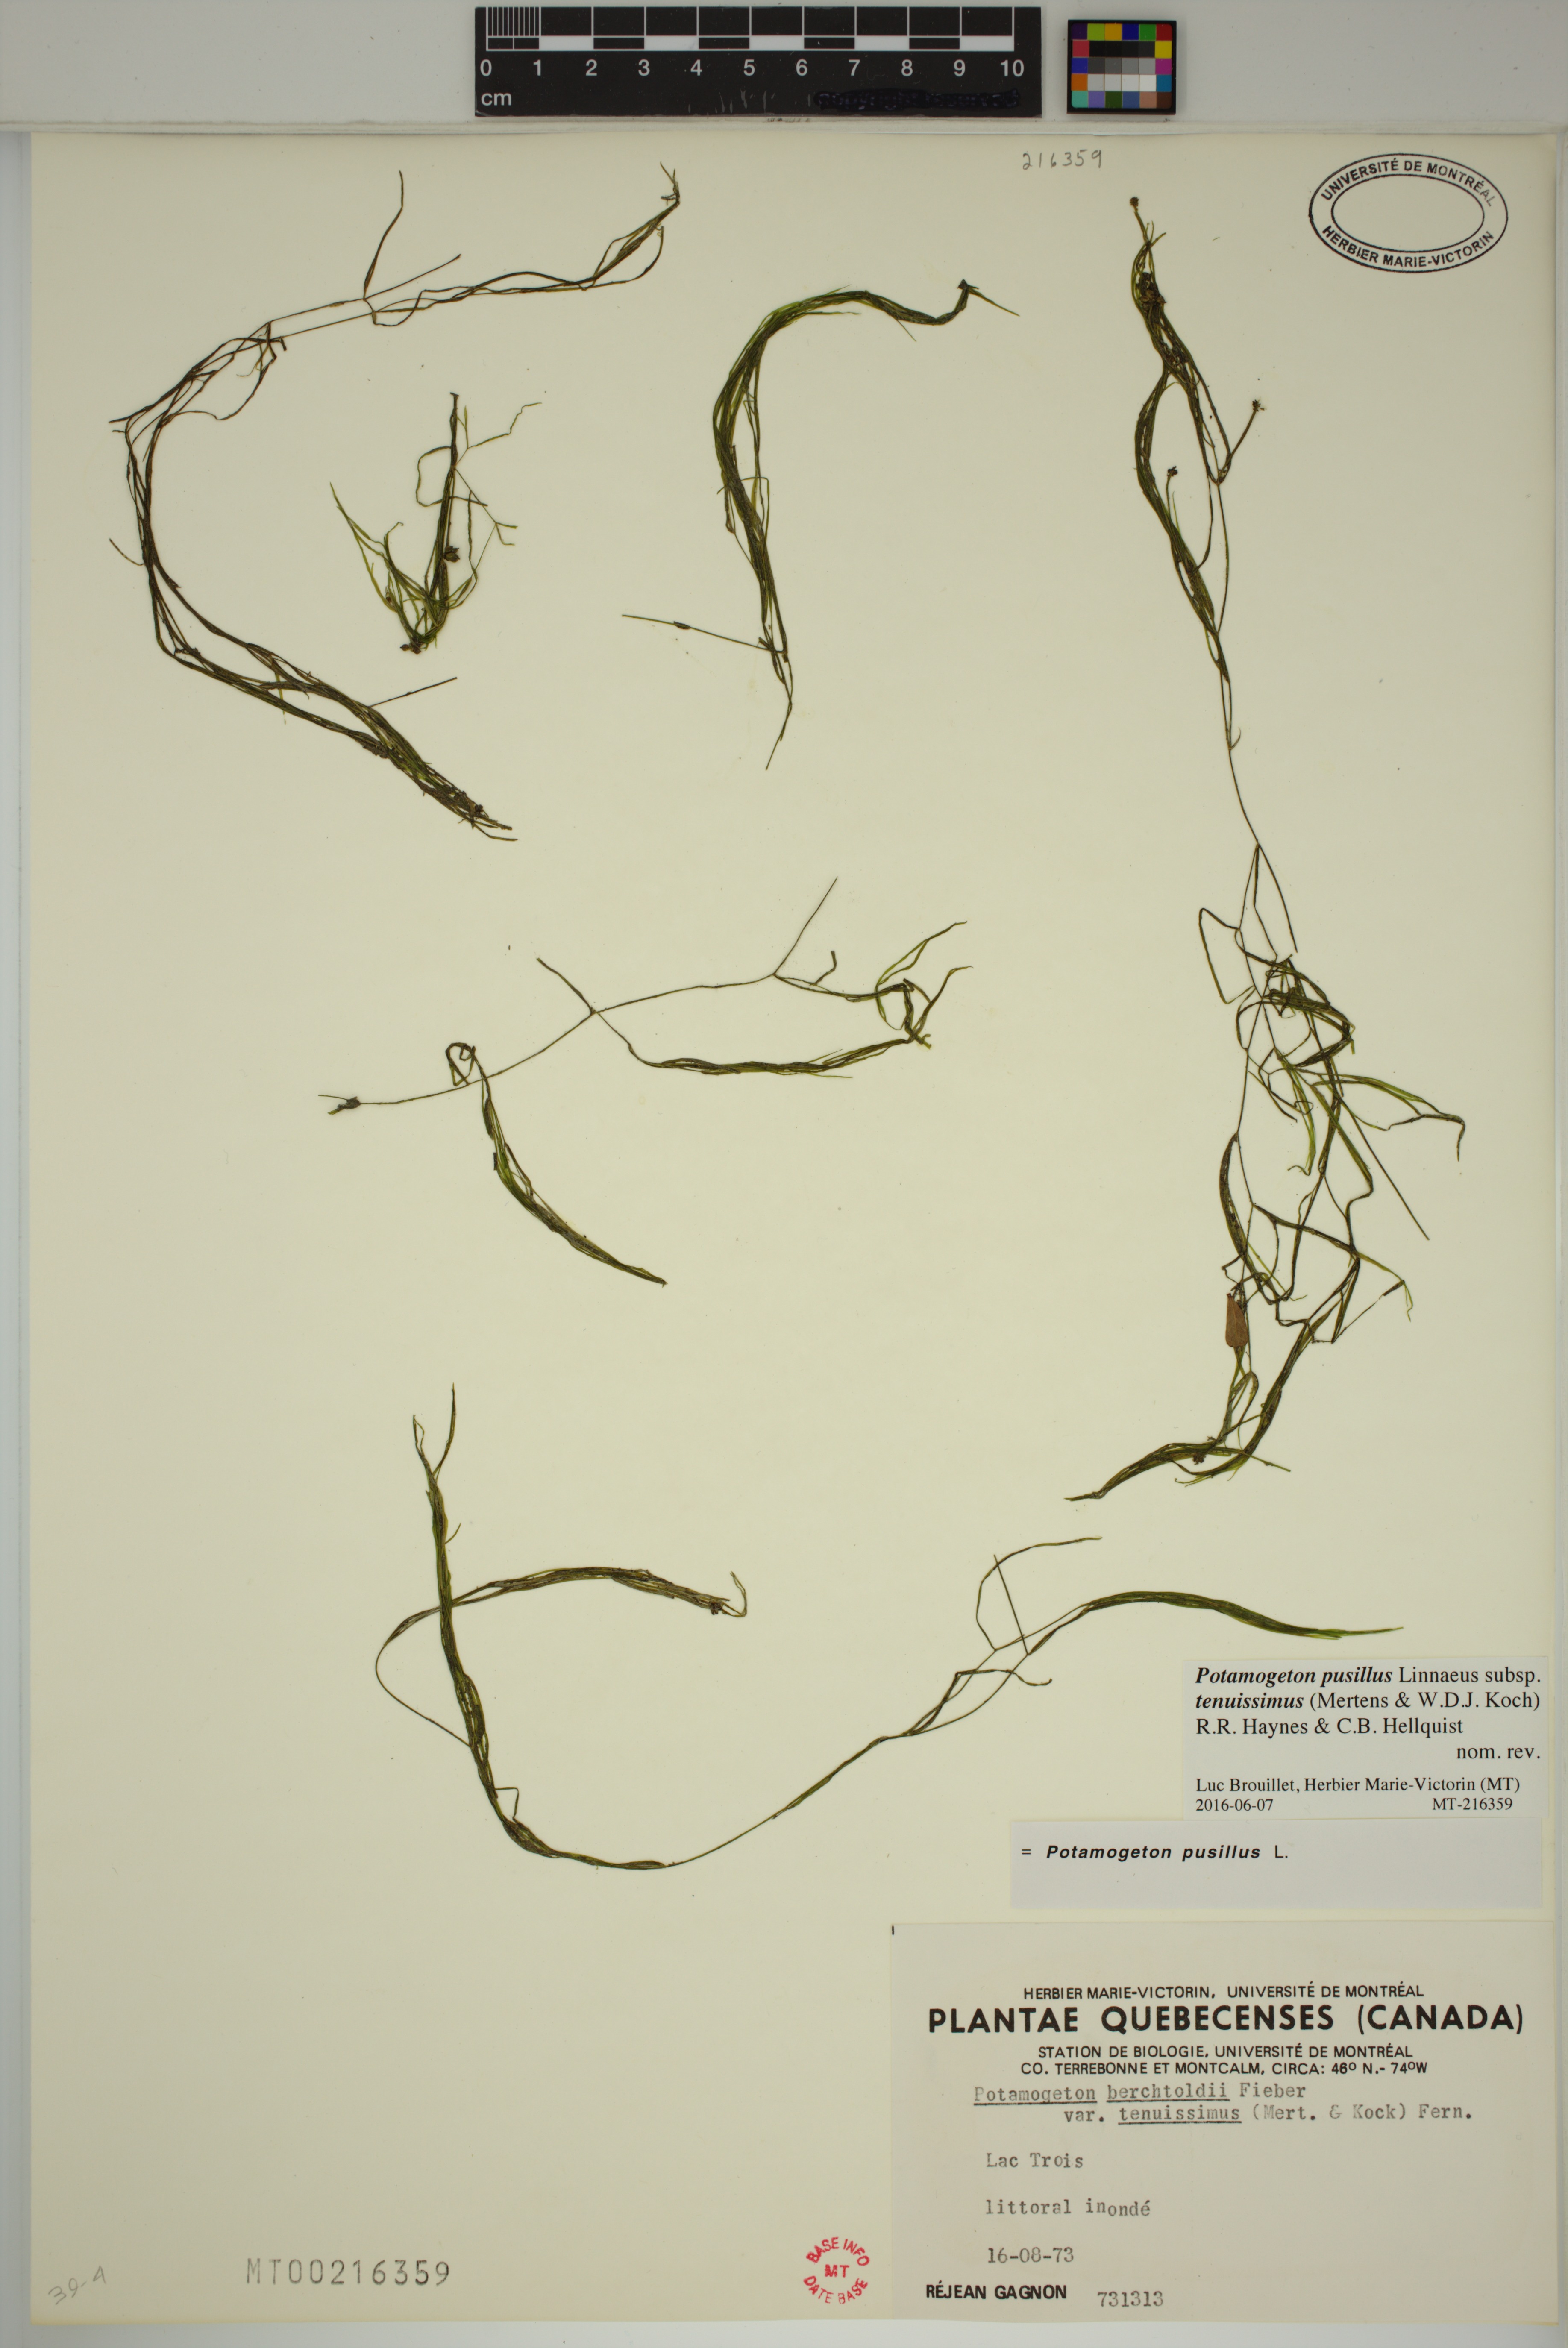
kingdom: Plantae
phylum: Tracheophyta
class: Liliopsida
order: Alismatales
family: Potamogetonaceae
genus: Potamogeton
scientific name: Potamogeton berchtoldii
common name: Small pondweed
